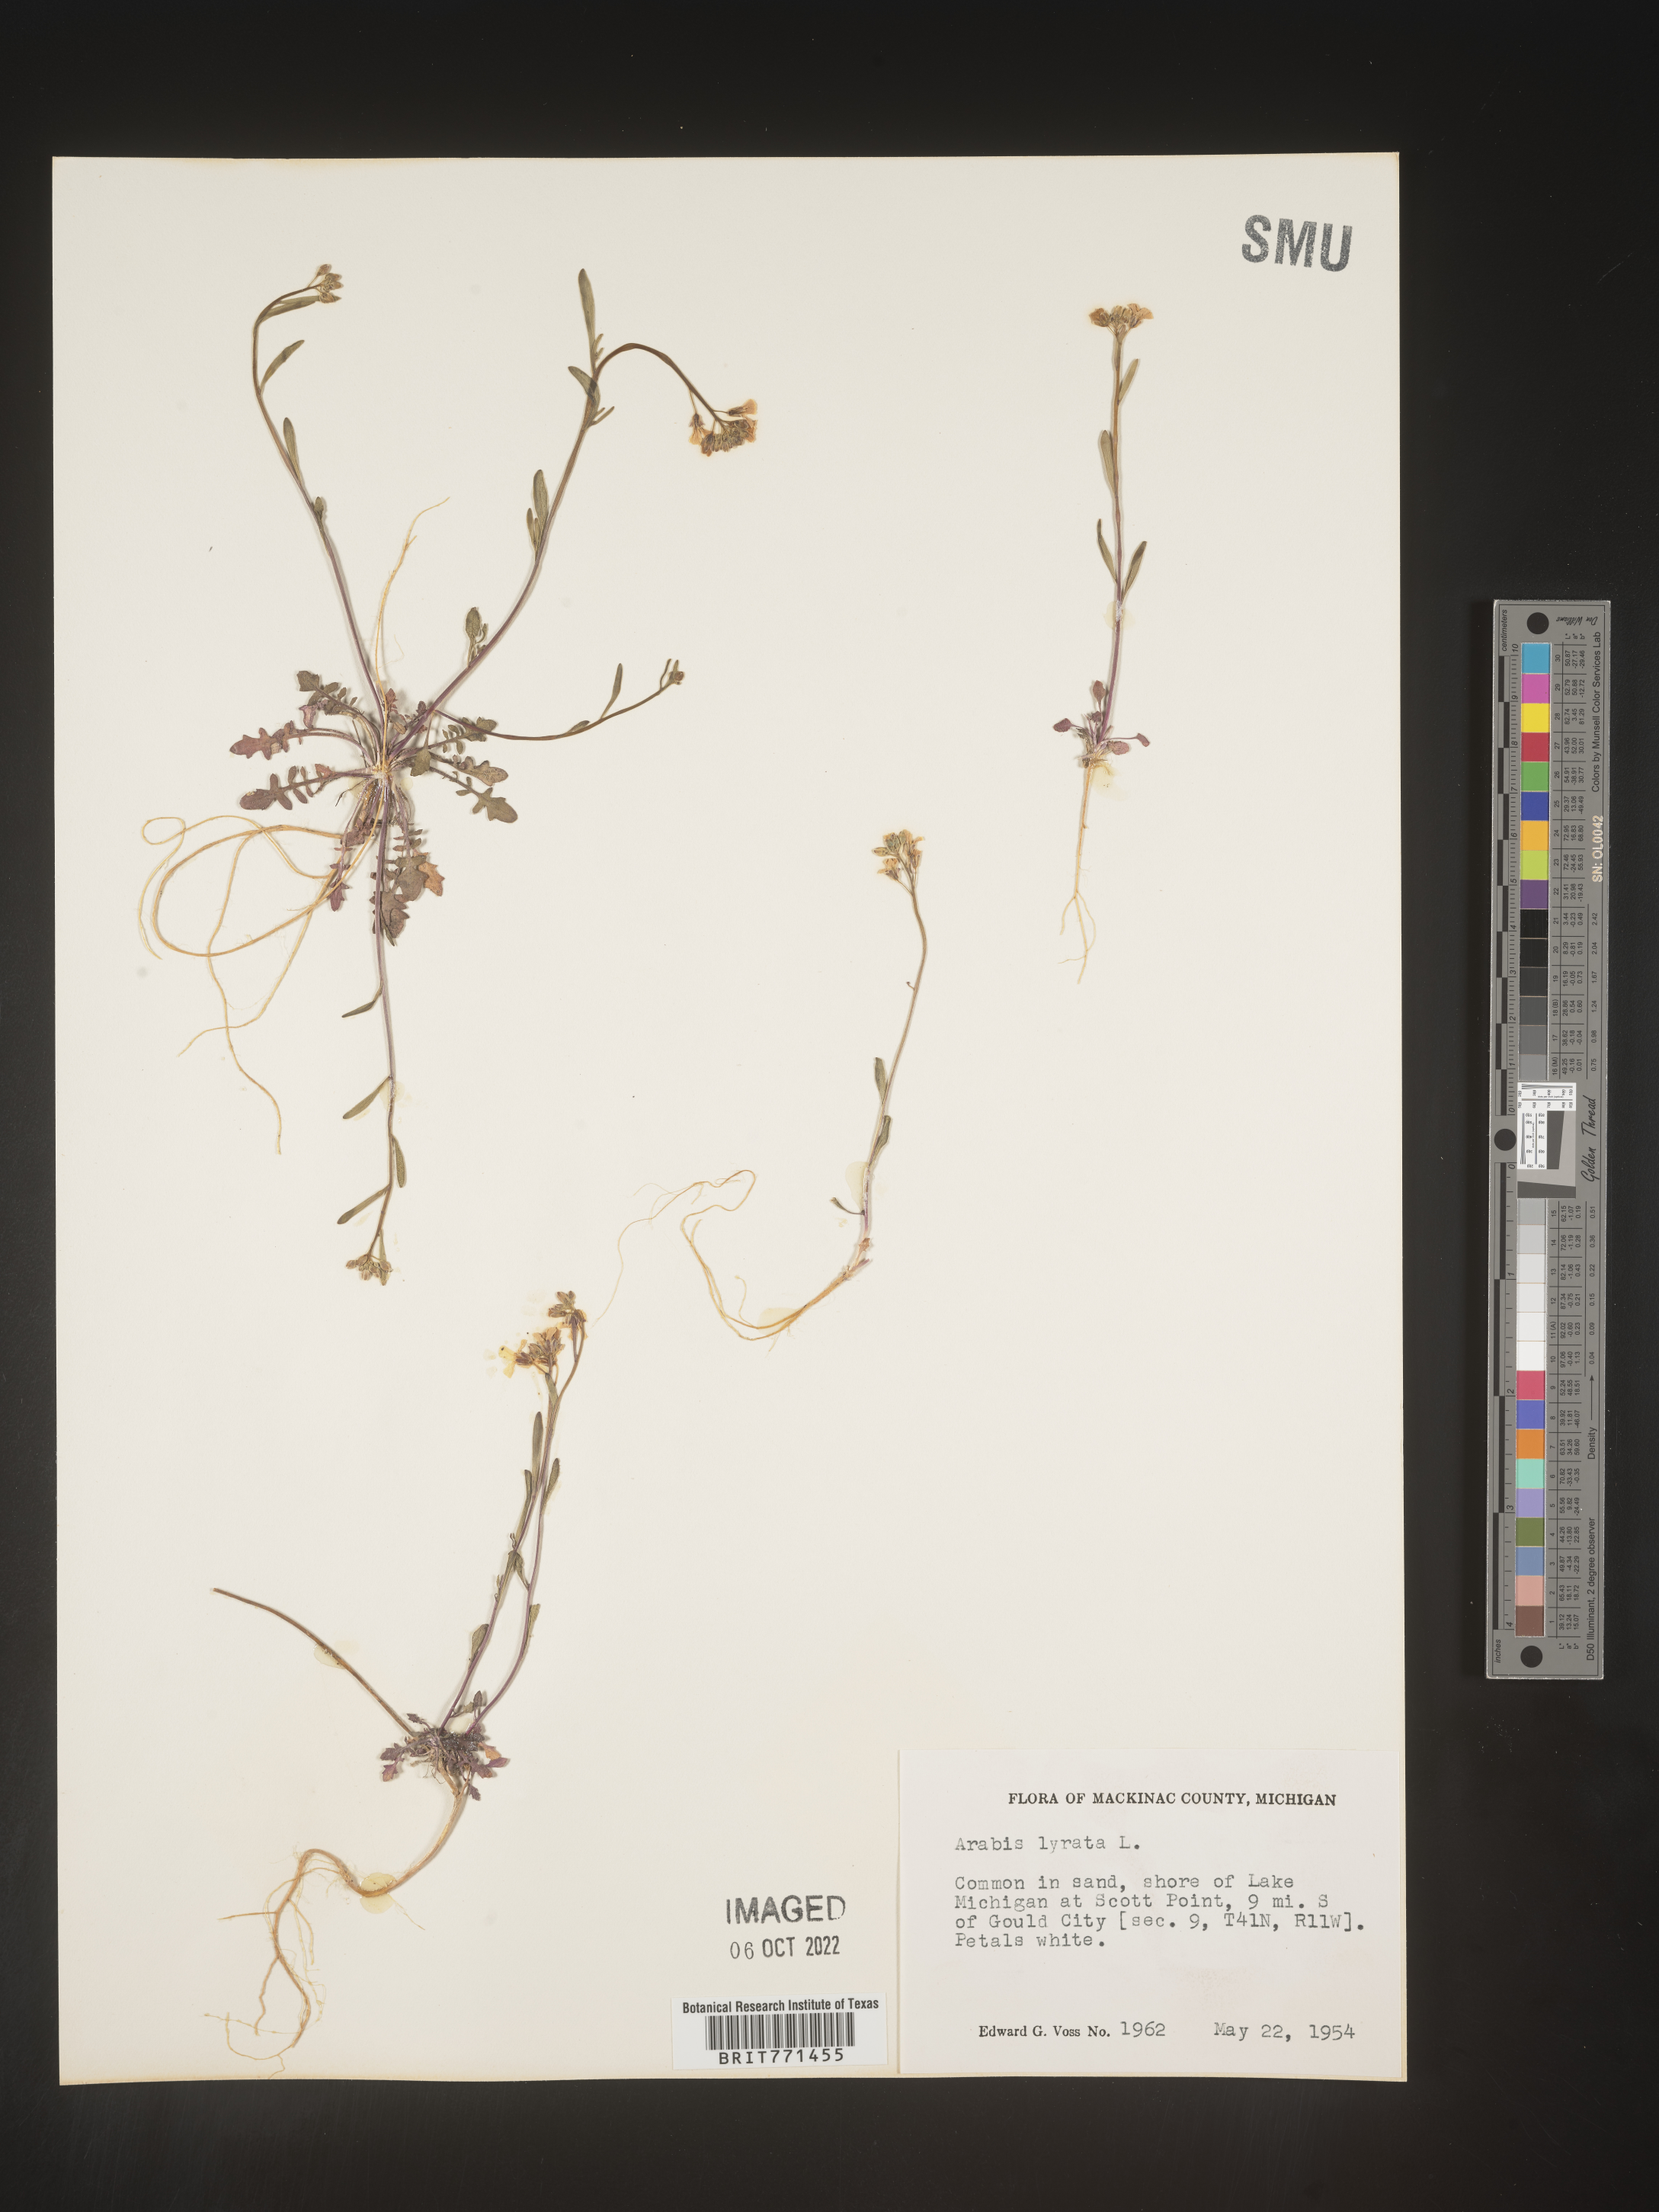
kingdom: Plantae
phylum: Tracheophyta
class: Magnoliopsida
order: Brassicales
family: Brassicaceae
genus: Arabidopsis
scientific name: Arabidopsis lyrata
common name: Lyrate rockcress
